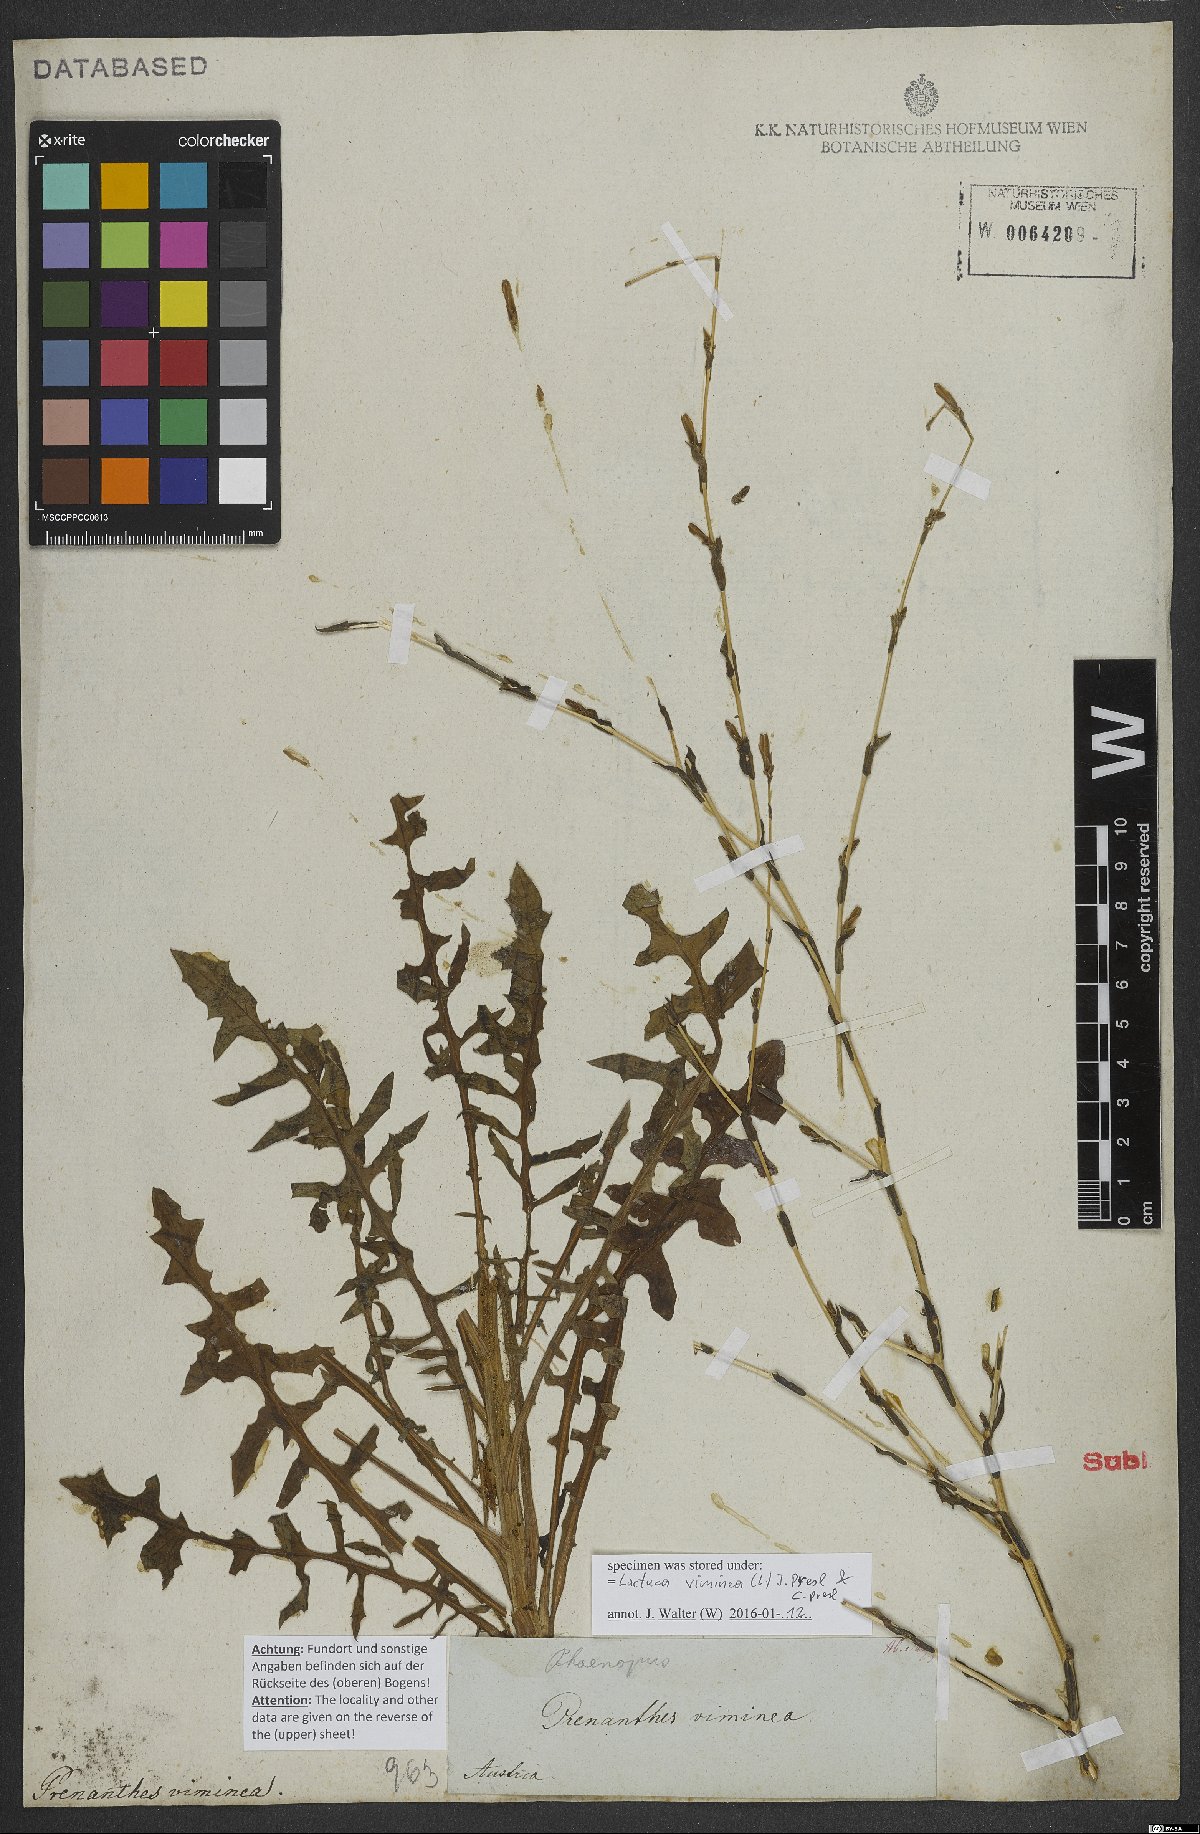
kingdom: Plantae
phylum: Tracheophyta
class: Magnoliopsida
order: Asterales
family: Asteraceae
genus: Lactuca
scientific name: Lactuca viminea
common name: Pliant lettuce
